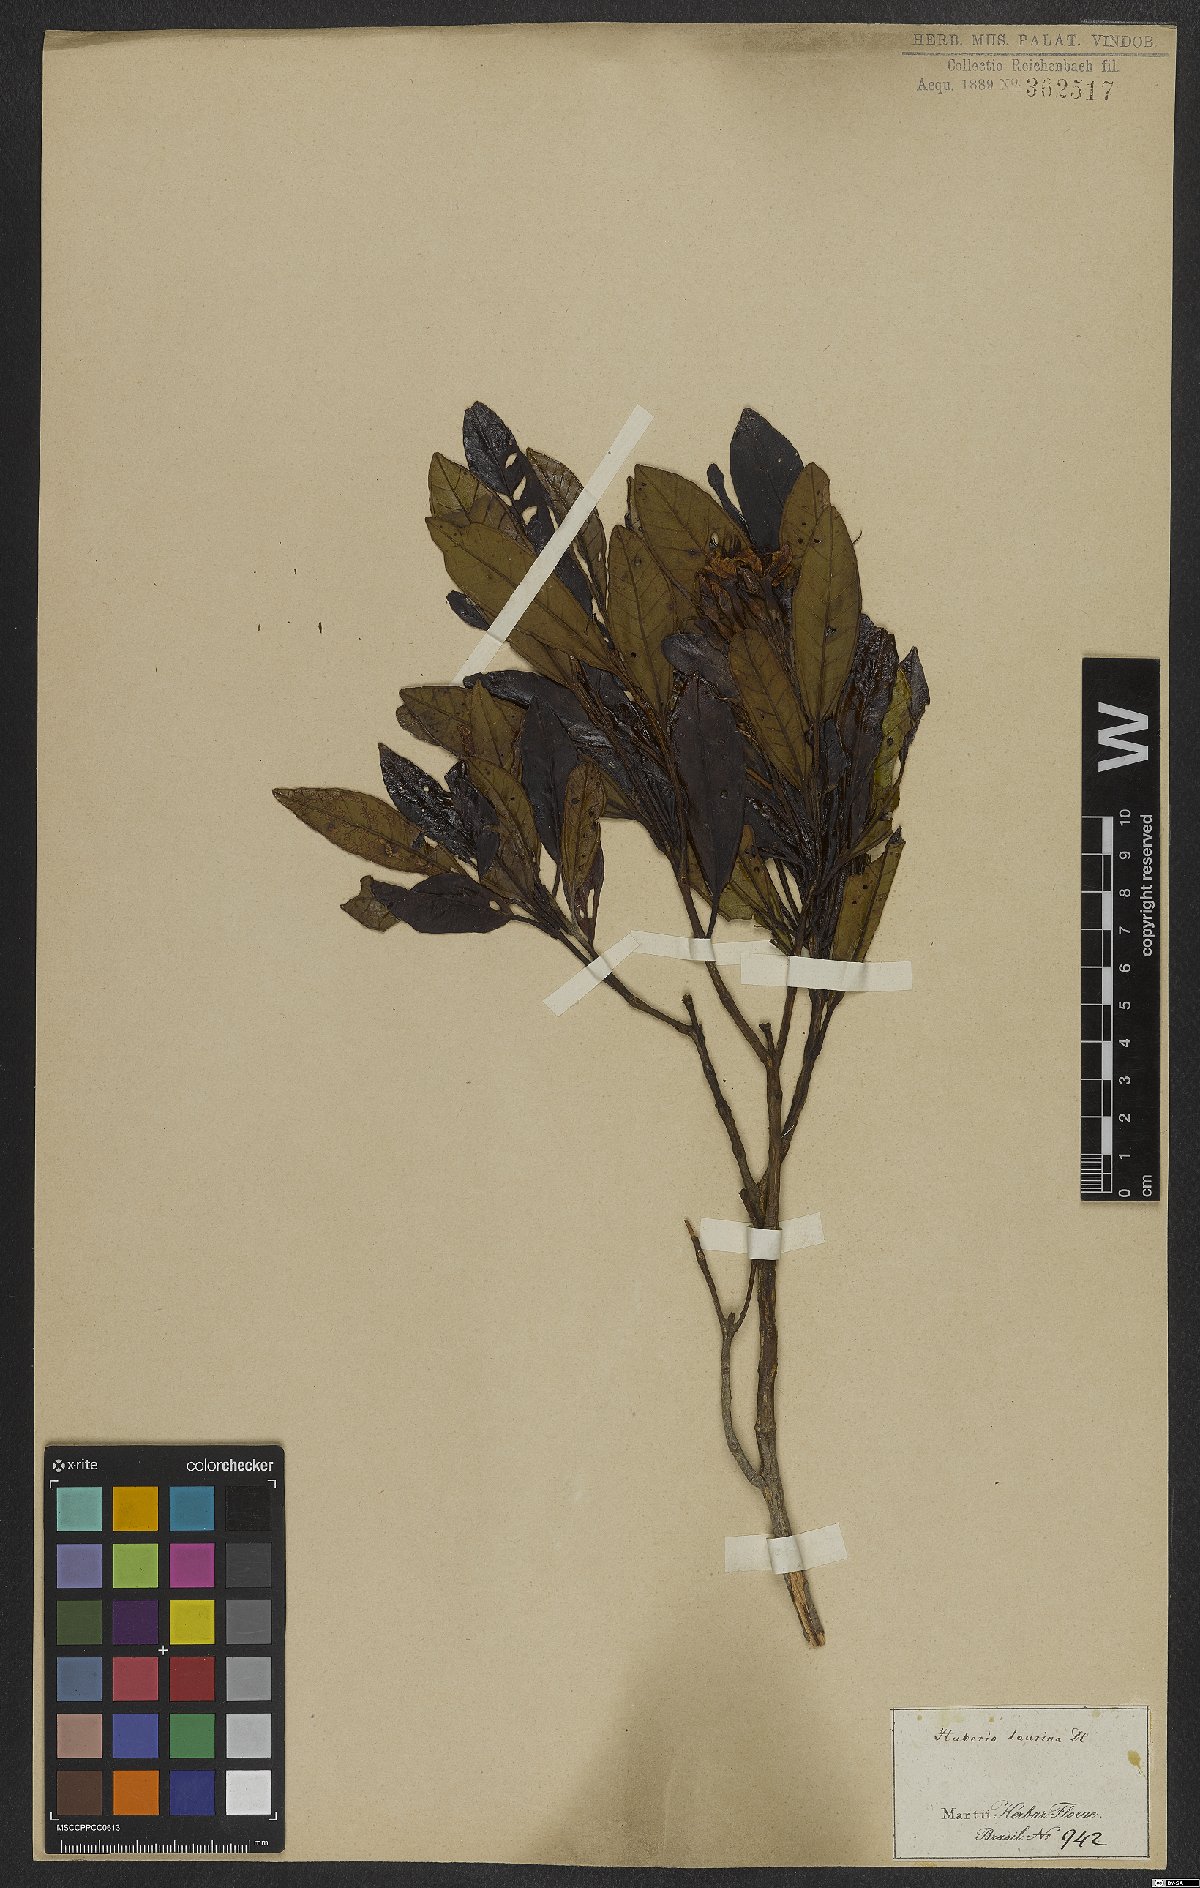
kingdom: Plantae
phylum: Tracheophyta
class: Magnoliopsida
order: Myrtales
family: Melastomataceae
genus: Huberia
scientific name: Huberia laurina
